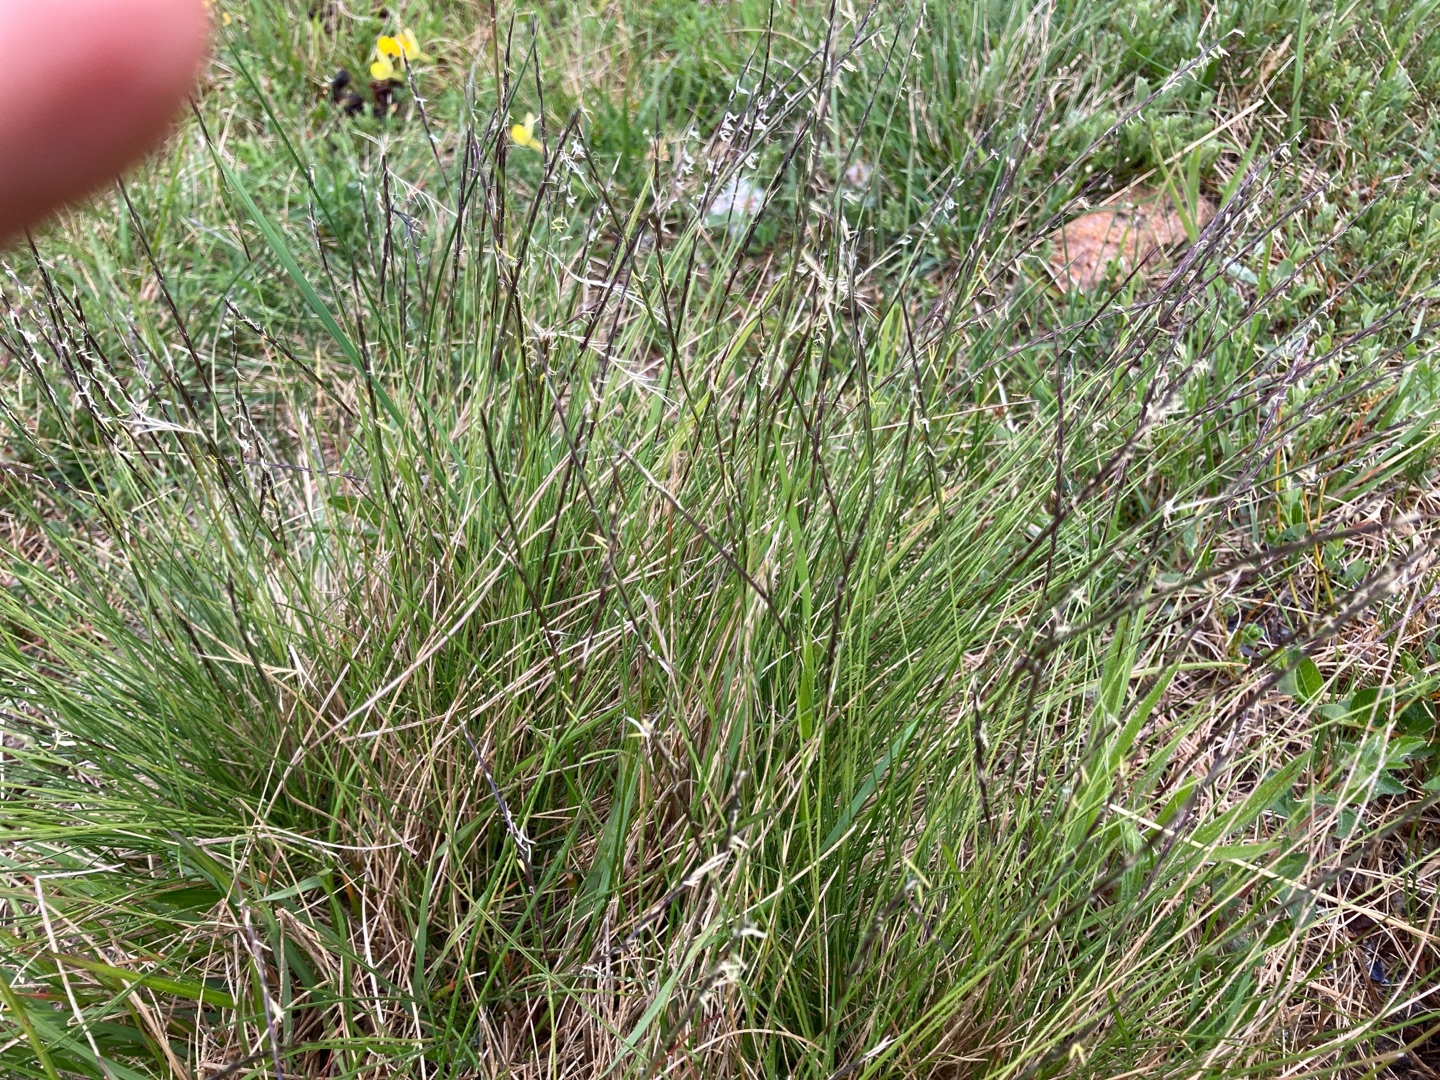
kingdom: Plantae
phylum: Tracheophyta
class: Liliopsida
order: Poales
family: Poaceae
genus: Nardus
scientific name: Nardus stricta
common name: Katteskæg
